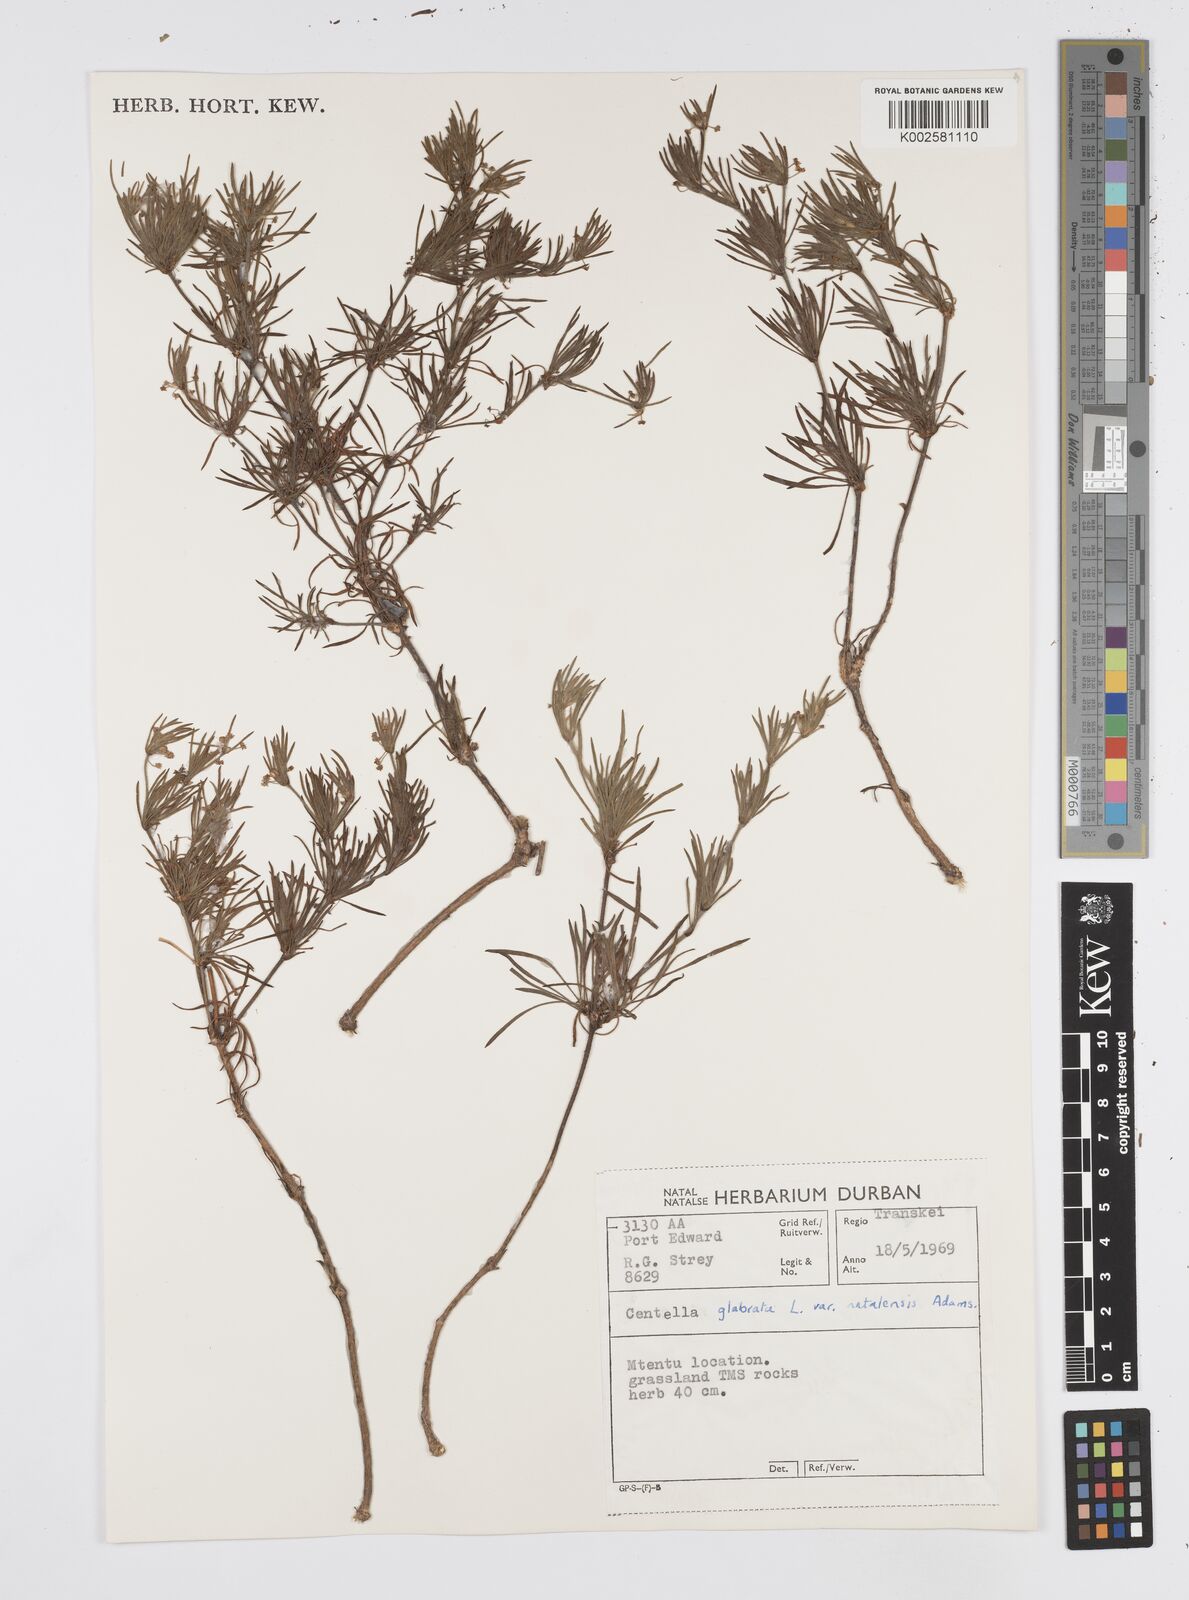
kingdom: Plantae
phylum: Tracheophyta
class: Magnoliopsida
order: Apiales
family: Apiaceae
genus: Centella
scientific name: Centella glabrata
